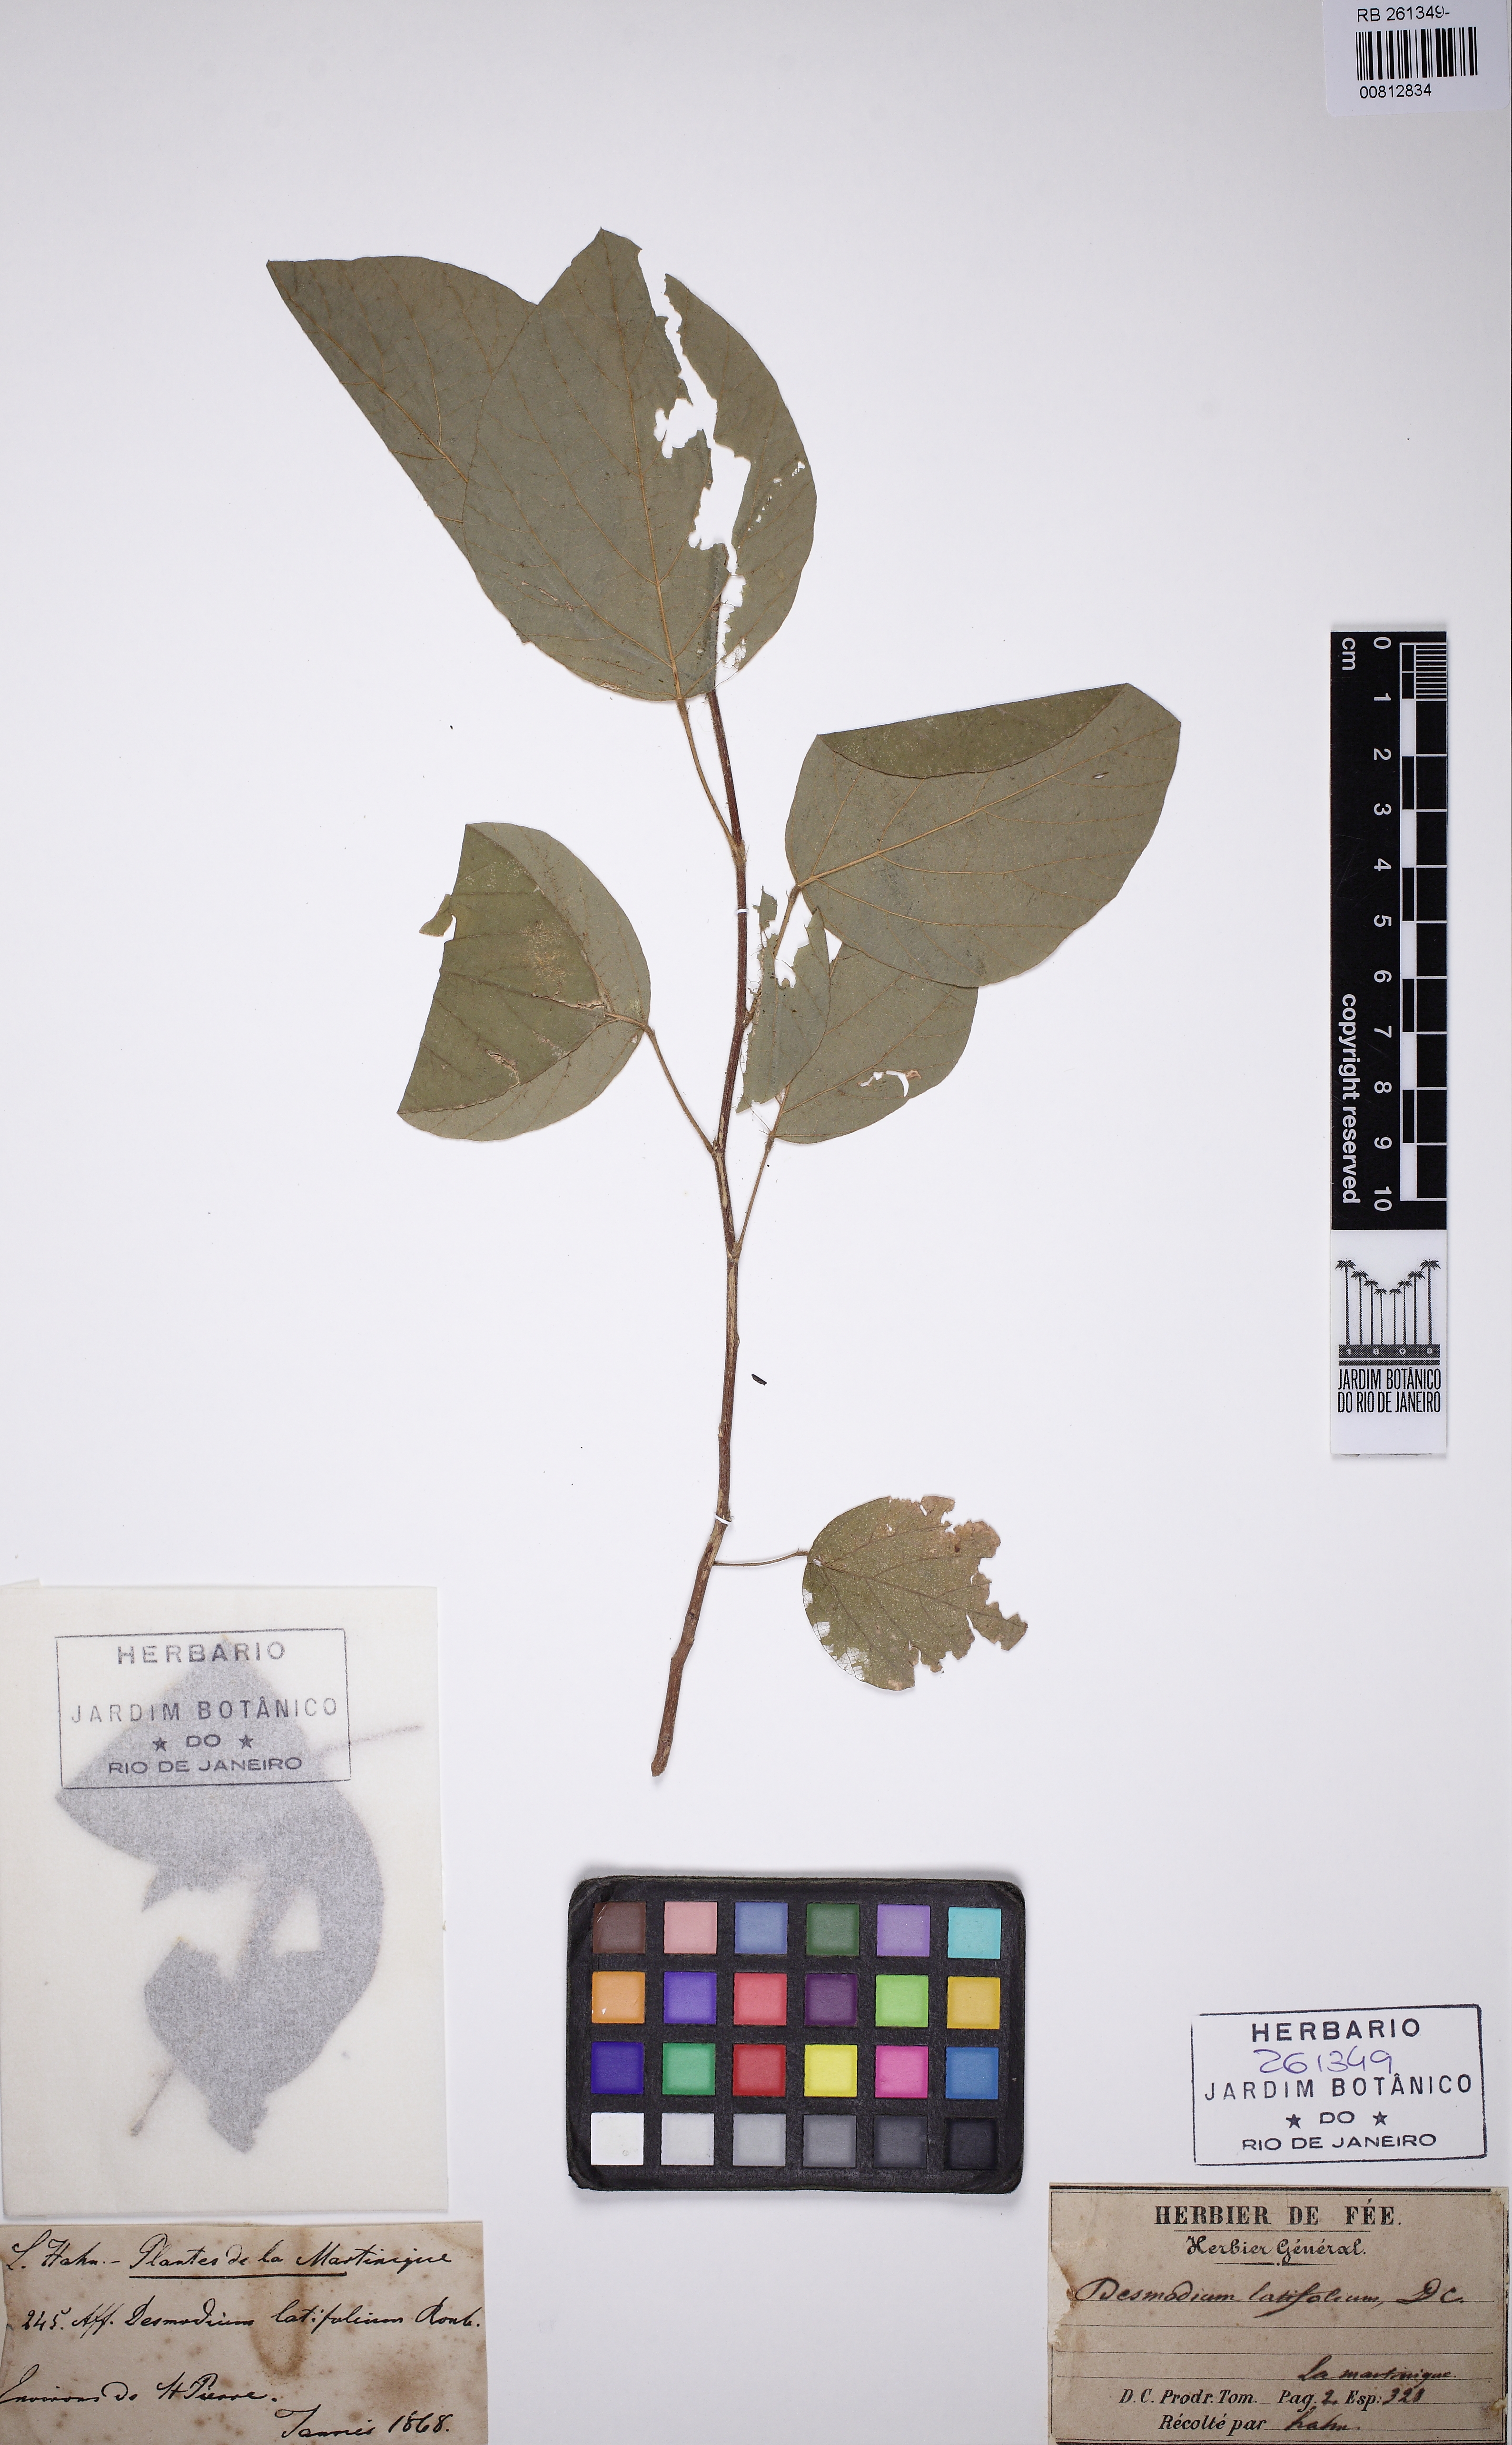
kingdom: Plantae
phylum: Tracheophyta
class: Magnoliopsida
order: Fabales
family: Fabaceae
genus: Polhillides
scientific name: Polhillides velutina
